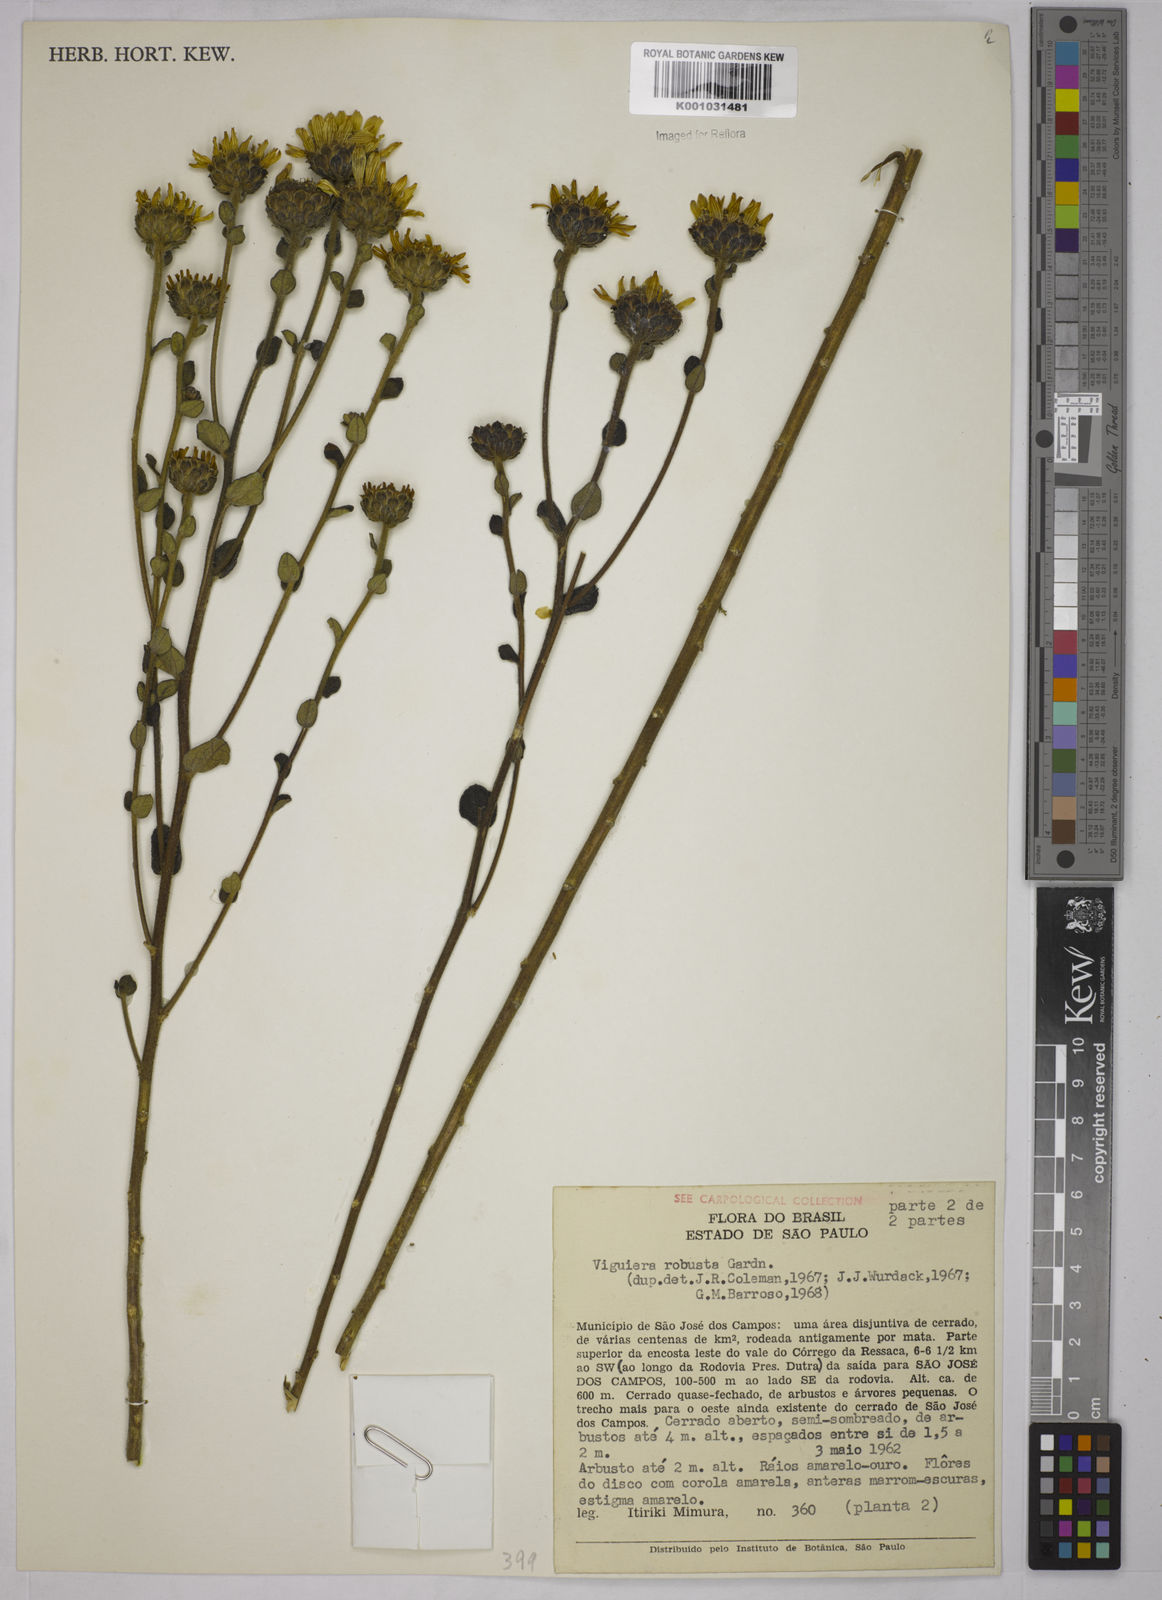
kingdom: Plantae
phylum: Tracheophyta
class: Magnoliopsida
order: Asterales
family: Asteraceae
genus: Aldama
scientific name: Aldama robusta
